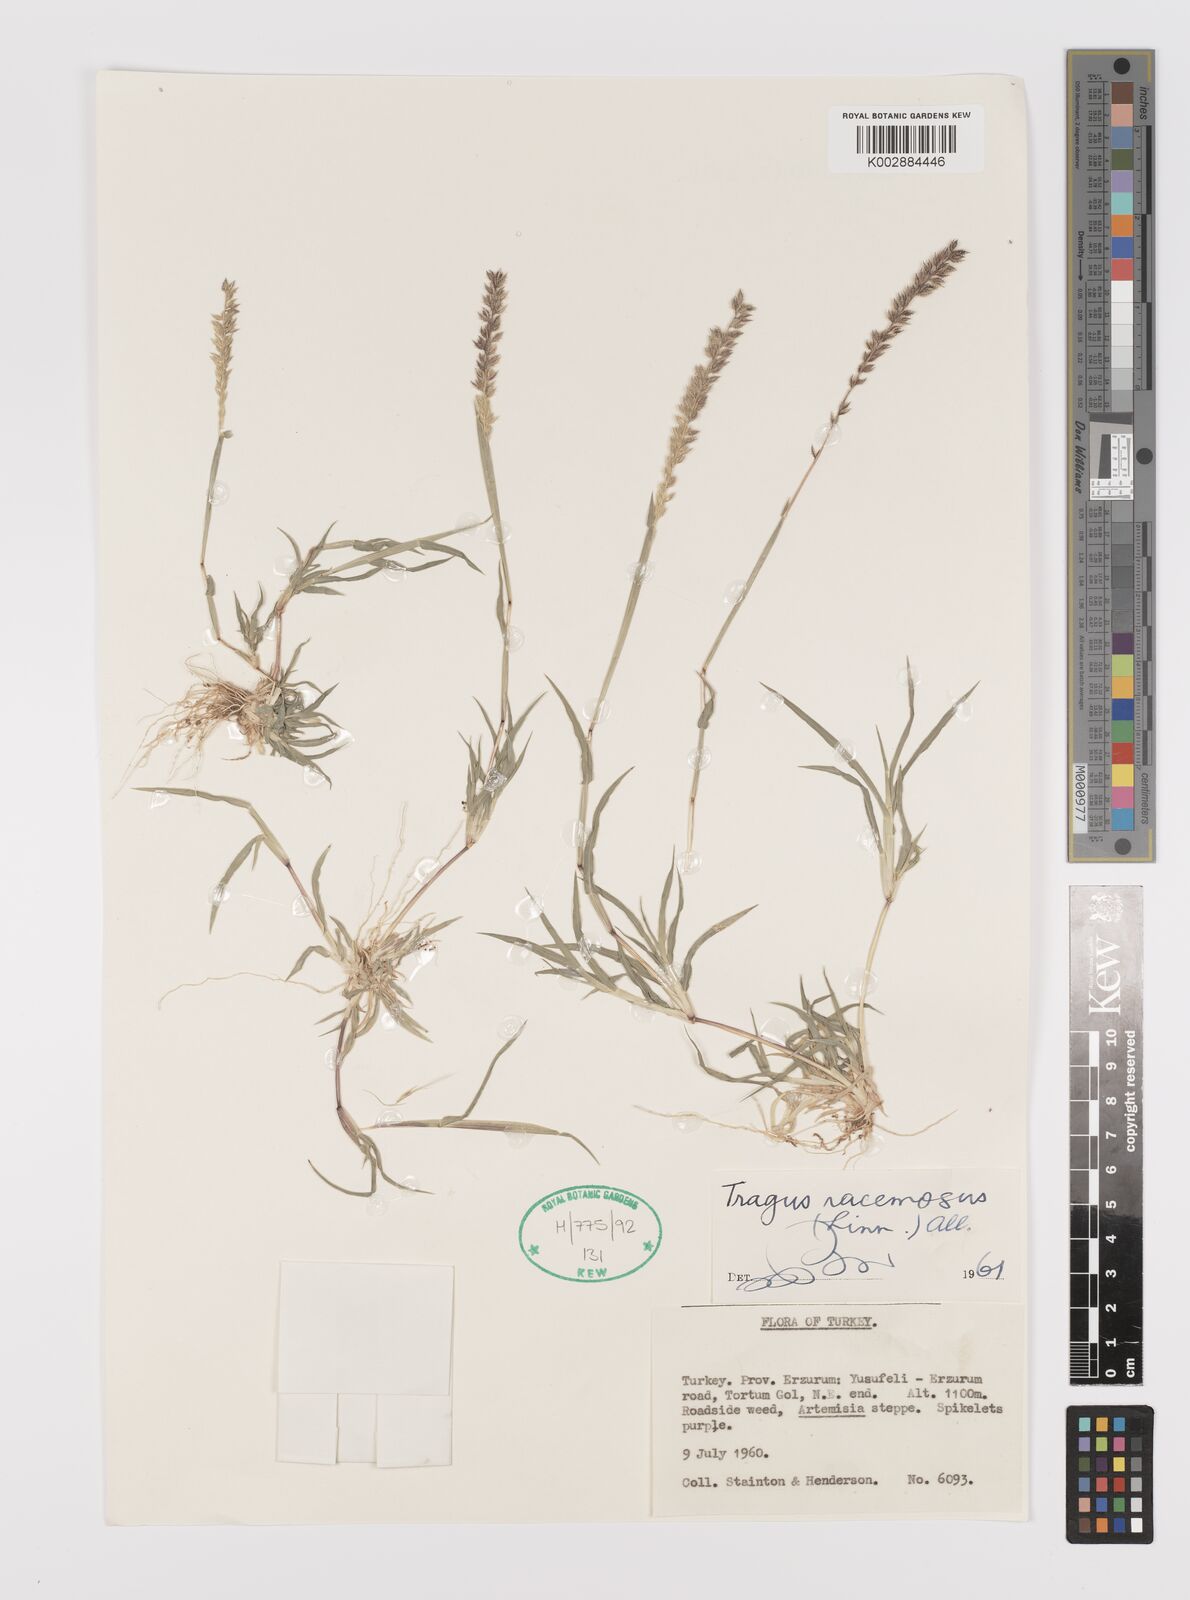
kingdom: Plantae
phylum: Tracheophyta
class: Liliopsida
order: Poales
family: Poaceae
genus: Tragus
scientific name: Tragus racemosus
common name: European bur-grass
